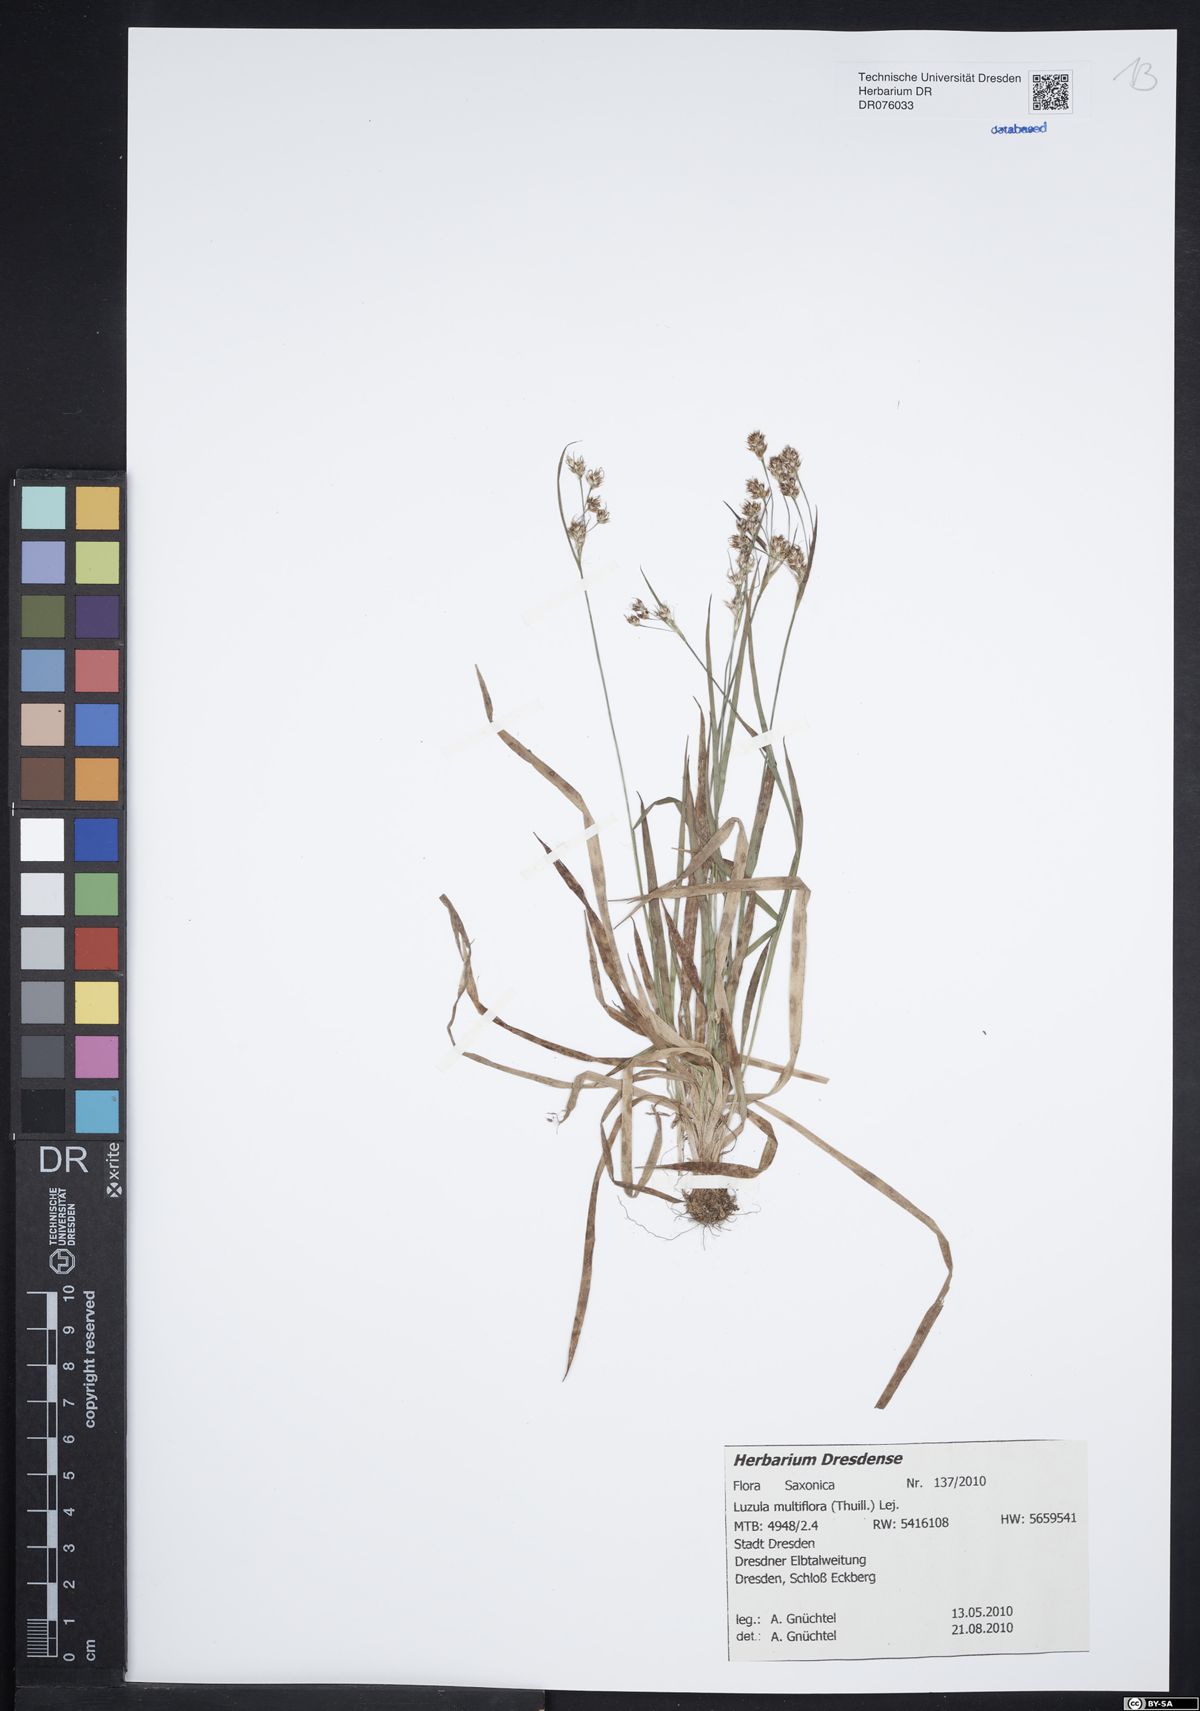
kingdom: Plantae
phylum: Tracheophyta
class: Liliopsida
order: Poales
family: Juncaceae
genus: Luzula
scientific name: Luzula multiflora
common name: Heath wood-rush
